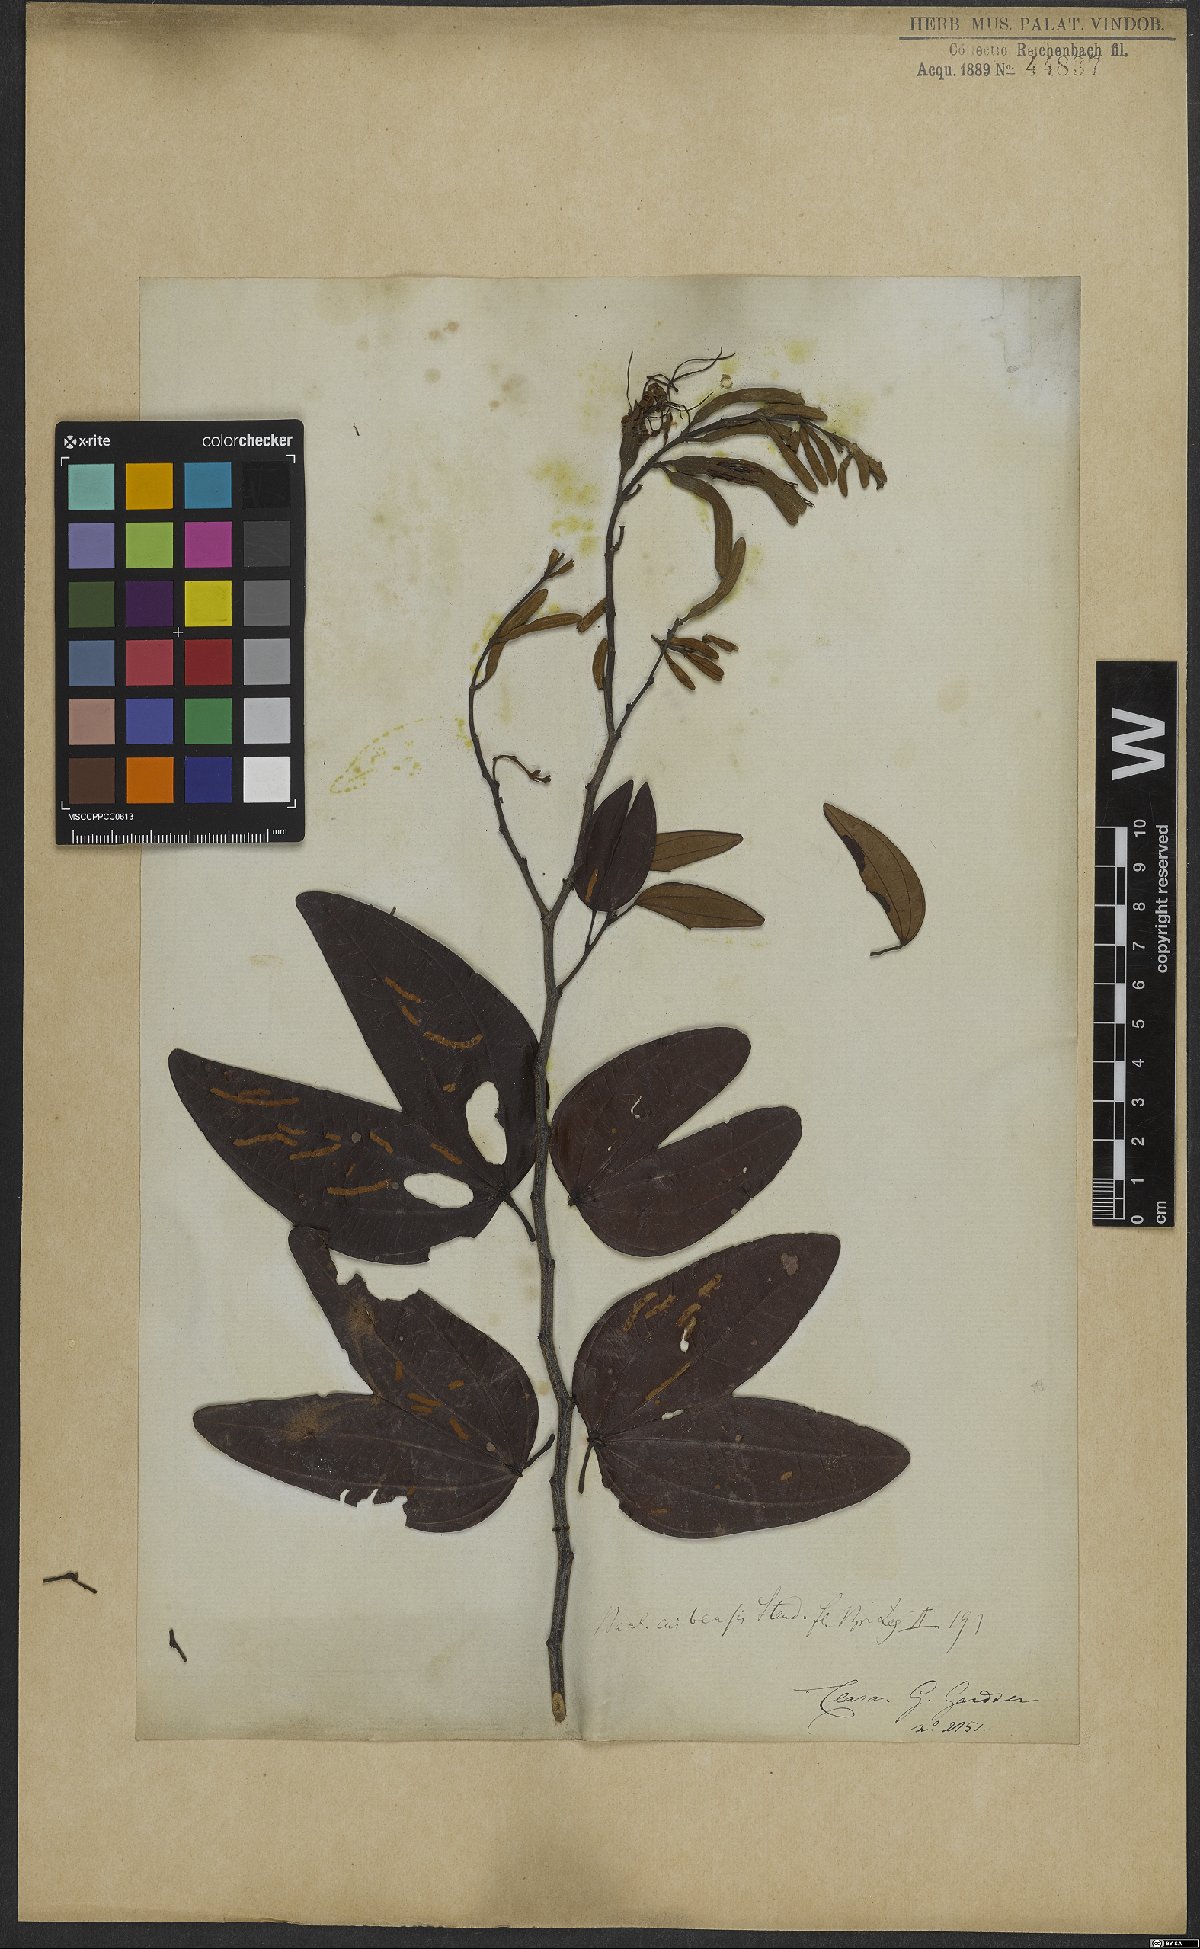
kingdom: Plantae
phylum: Tracheophyta
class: Magnoliopsida
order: Fabales
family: Fabaceae
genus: Bauhinia
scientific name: Bauhinia ungulata
